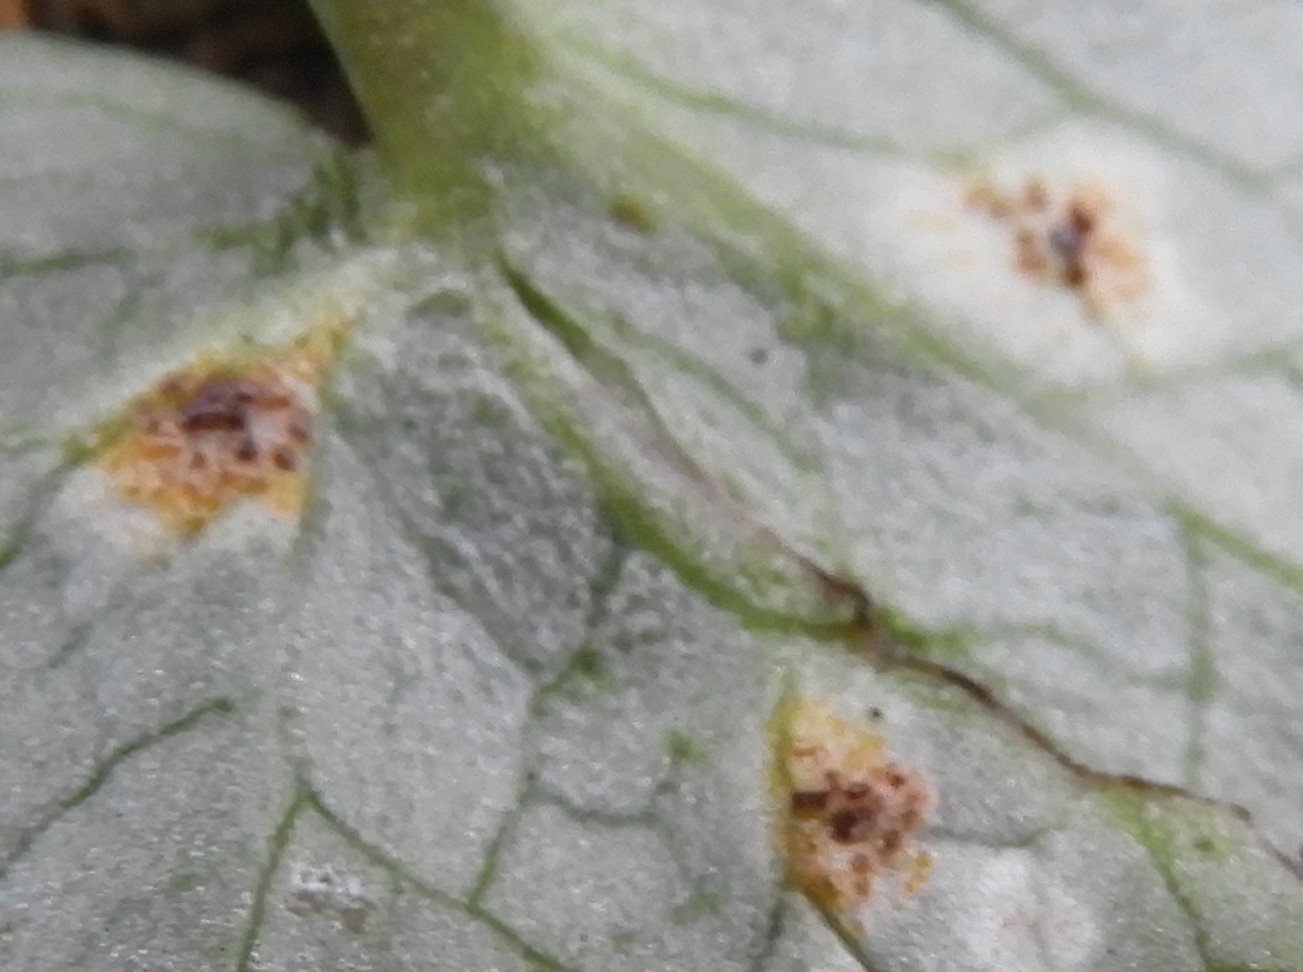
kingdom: Fungi
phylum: Basidiomycota
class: Pucciniomycetes
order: Pucciniales
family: Pucciniaceae
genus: Uromyces
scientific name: Uromyces ficariae
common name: vorterod-encellerust
